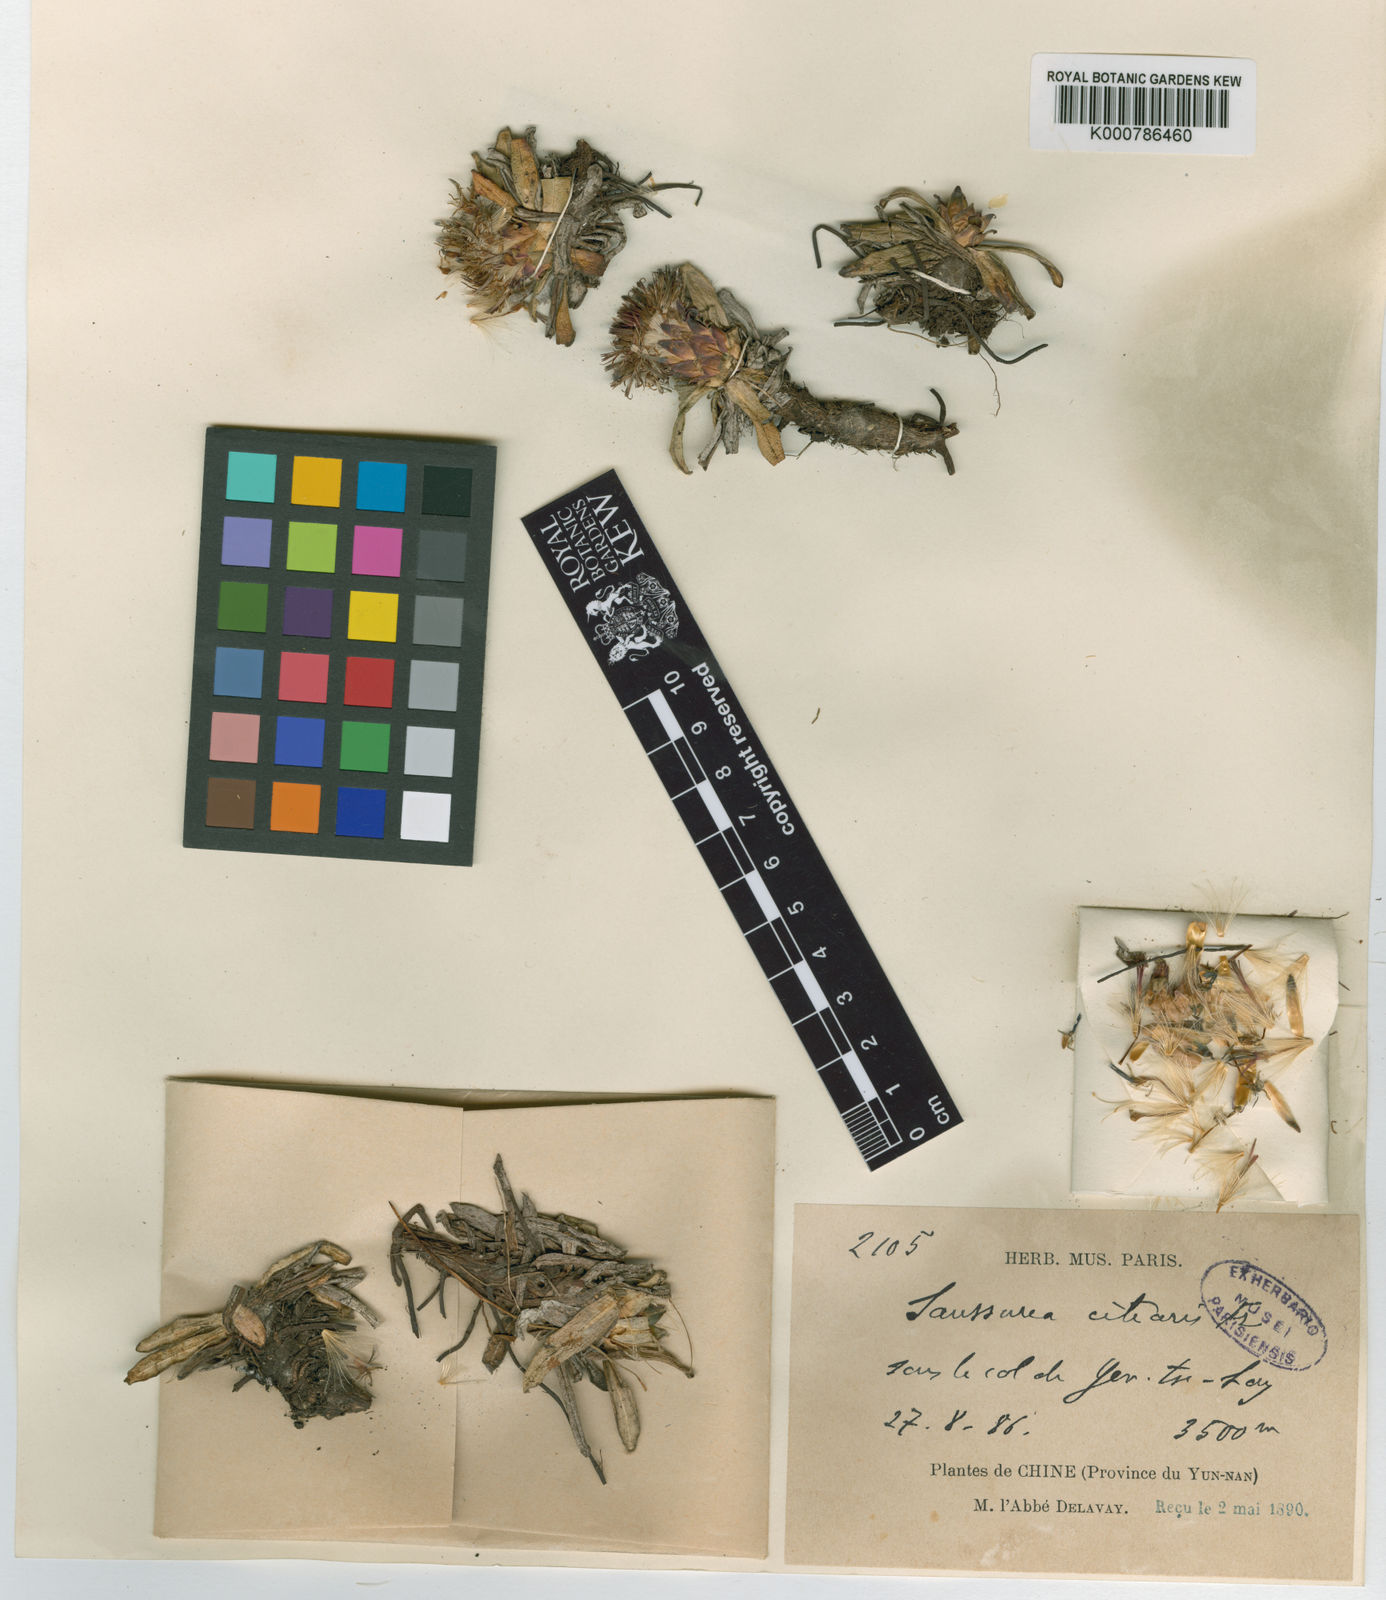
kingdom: Plantae
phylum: Tracheophyta
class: Magnoliopsida
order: Asterales
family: Asteraceae
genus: Saussurea
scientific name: Saussurea ciliaris
